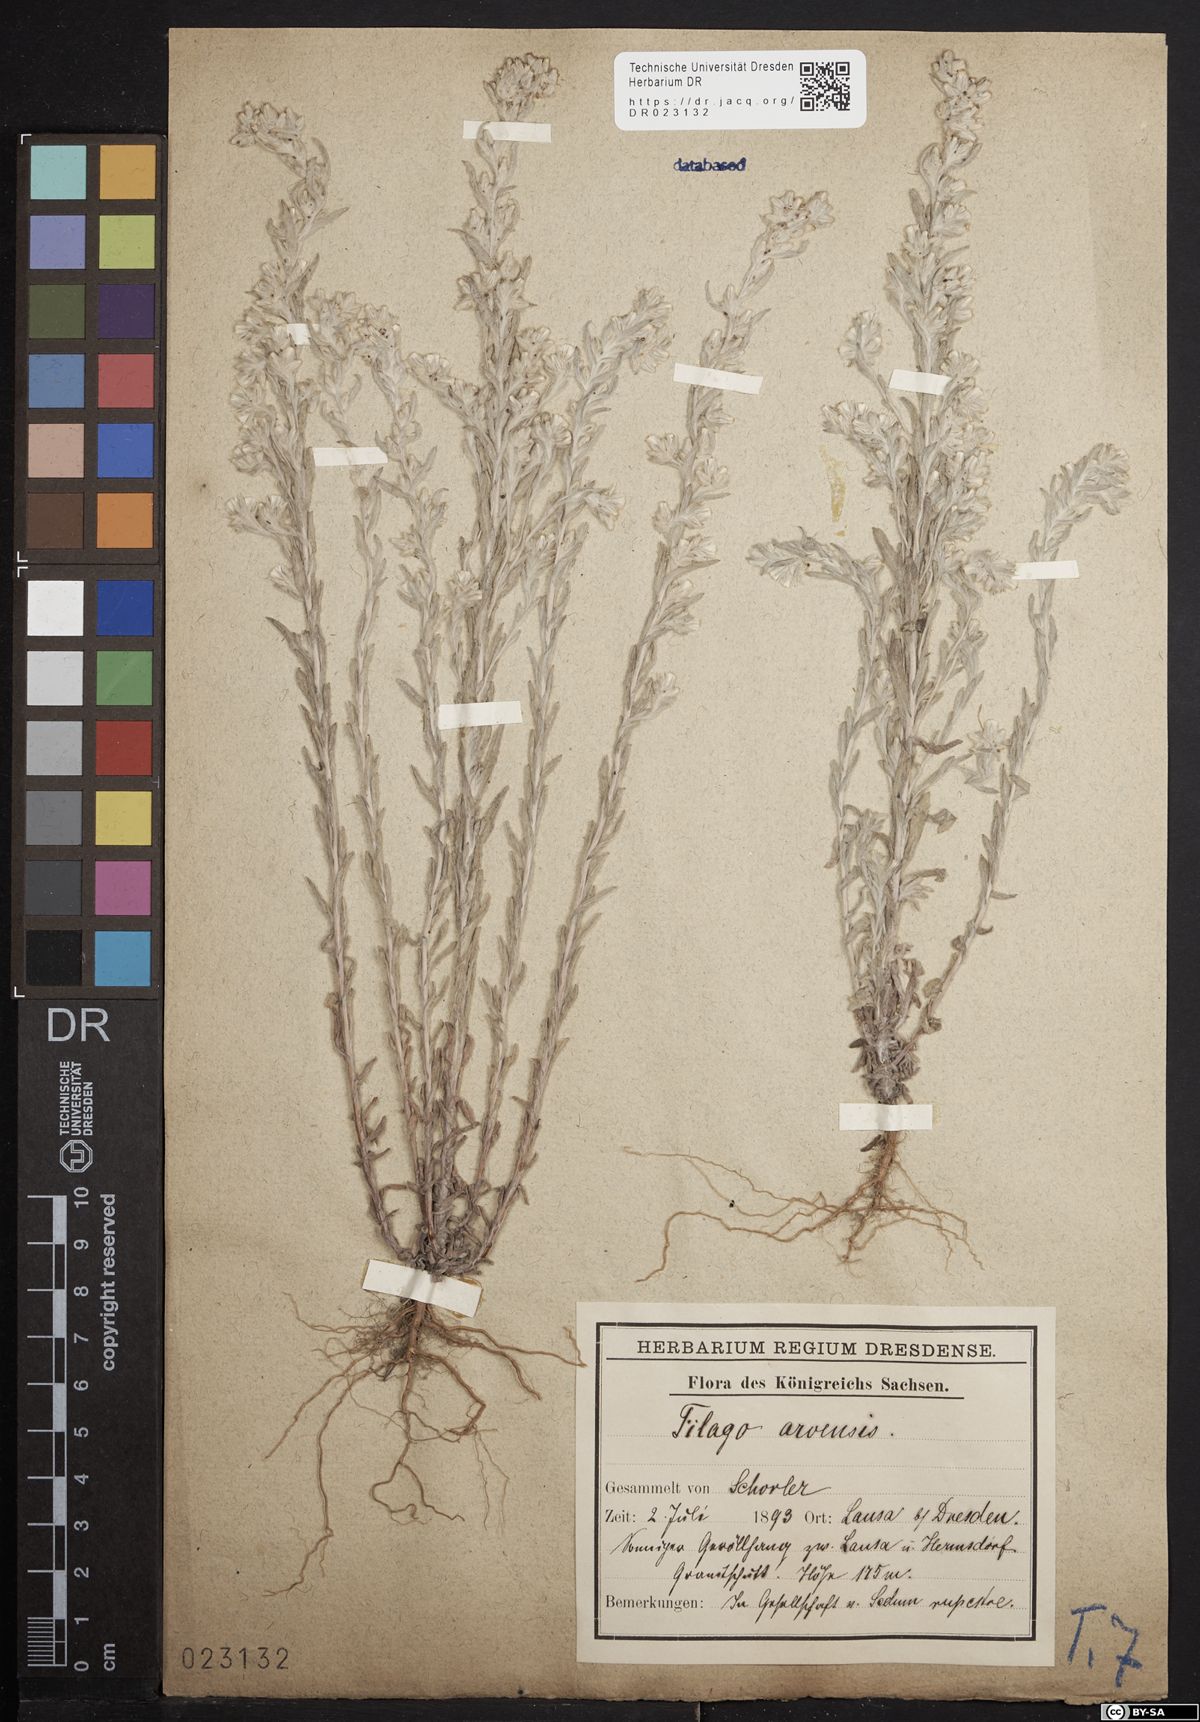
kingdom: Plantae
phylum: Tracheophyta
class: Magnoliopsida
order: Asterales
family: Asteraceae
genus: Filago
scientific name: Filago arvensis
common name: Field cudweed
